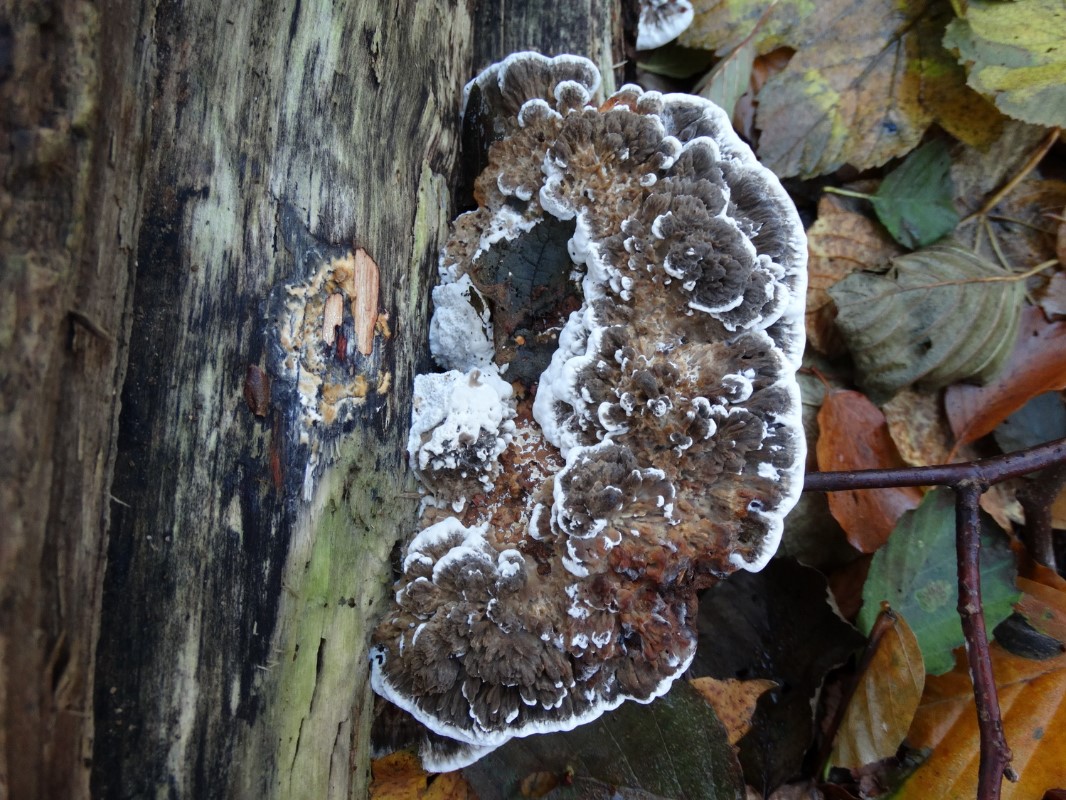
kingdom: Fungi
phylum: Basidiomycota
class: Agaricomycetes
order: Polyporales
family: Polyporaceae
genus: Daedaleopsis
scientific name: Daedaleopsis confragosa
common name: rødmende læderporesvamp
